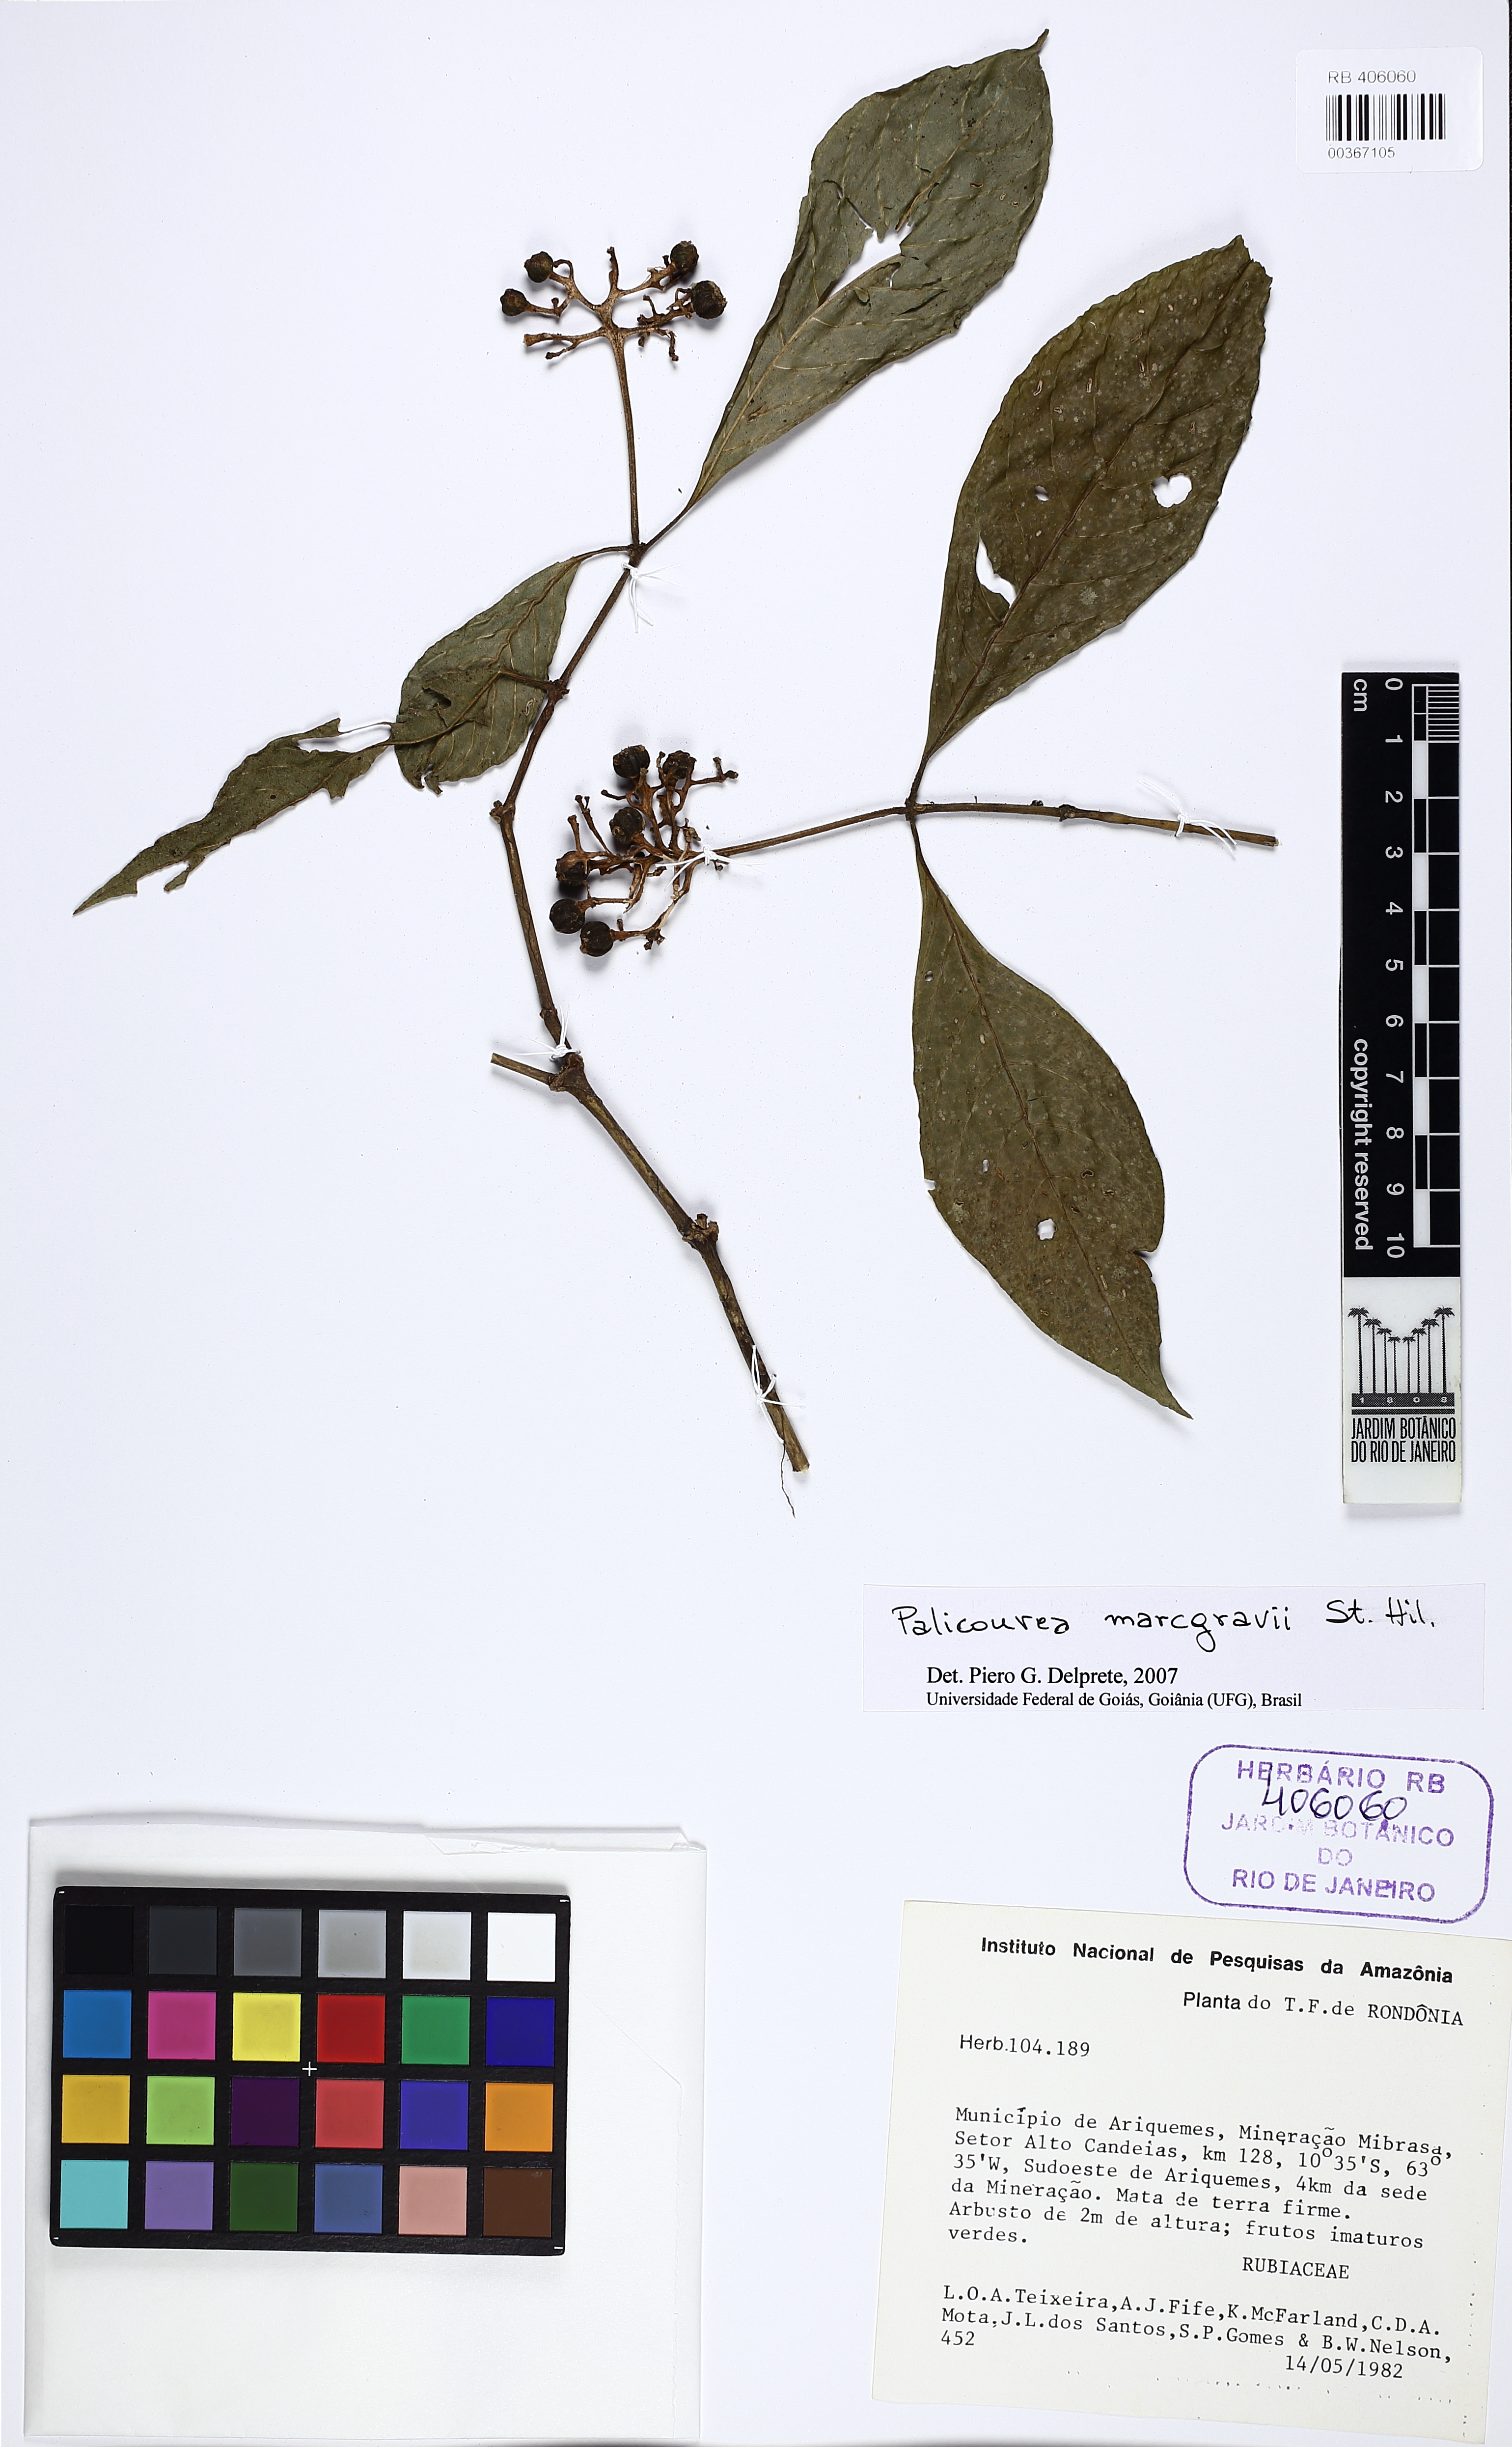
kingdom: Plantae
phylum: Tracheophyta
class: Magnoliopsida
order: Gentianales
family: Rubiaceae
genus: Palicourea
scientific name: Palicourea marcgravii
